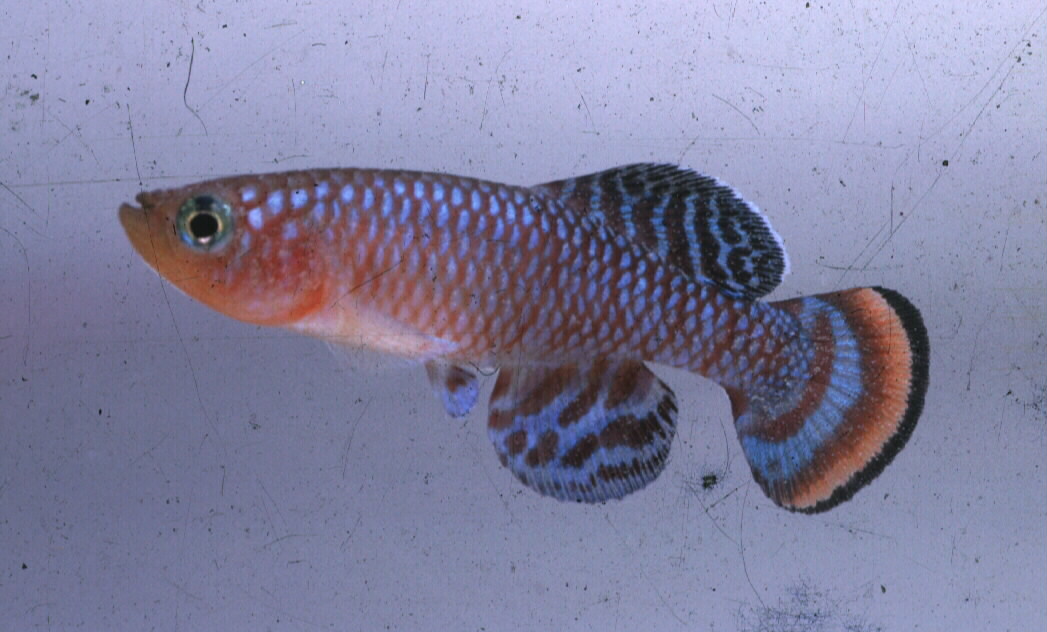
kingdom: Animalia
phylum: Chordata
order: Cyprinodontiformes
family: Nothobranchiidae
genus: Nothobranchius
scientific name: Nothobranchius rachovii
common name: Rainbow kilifish
